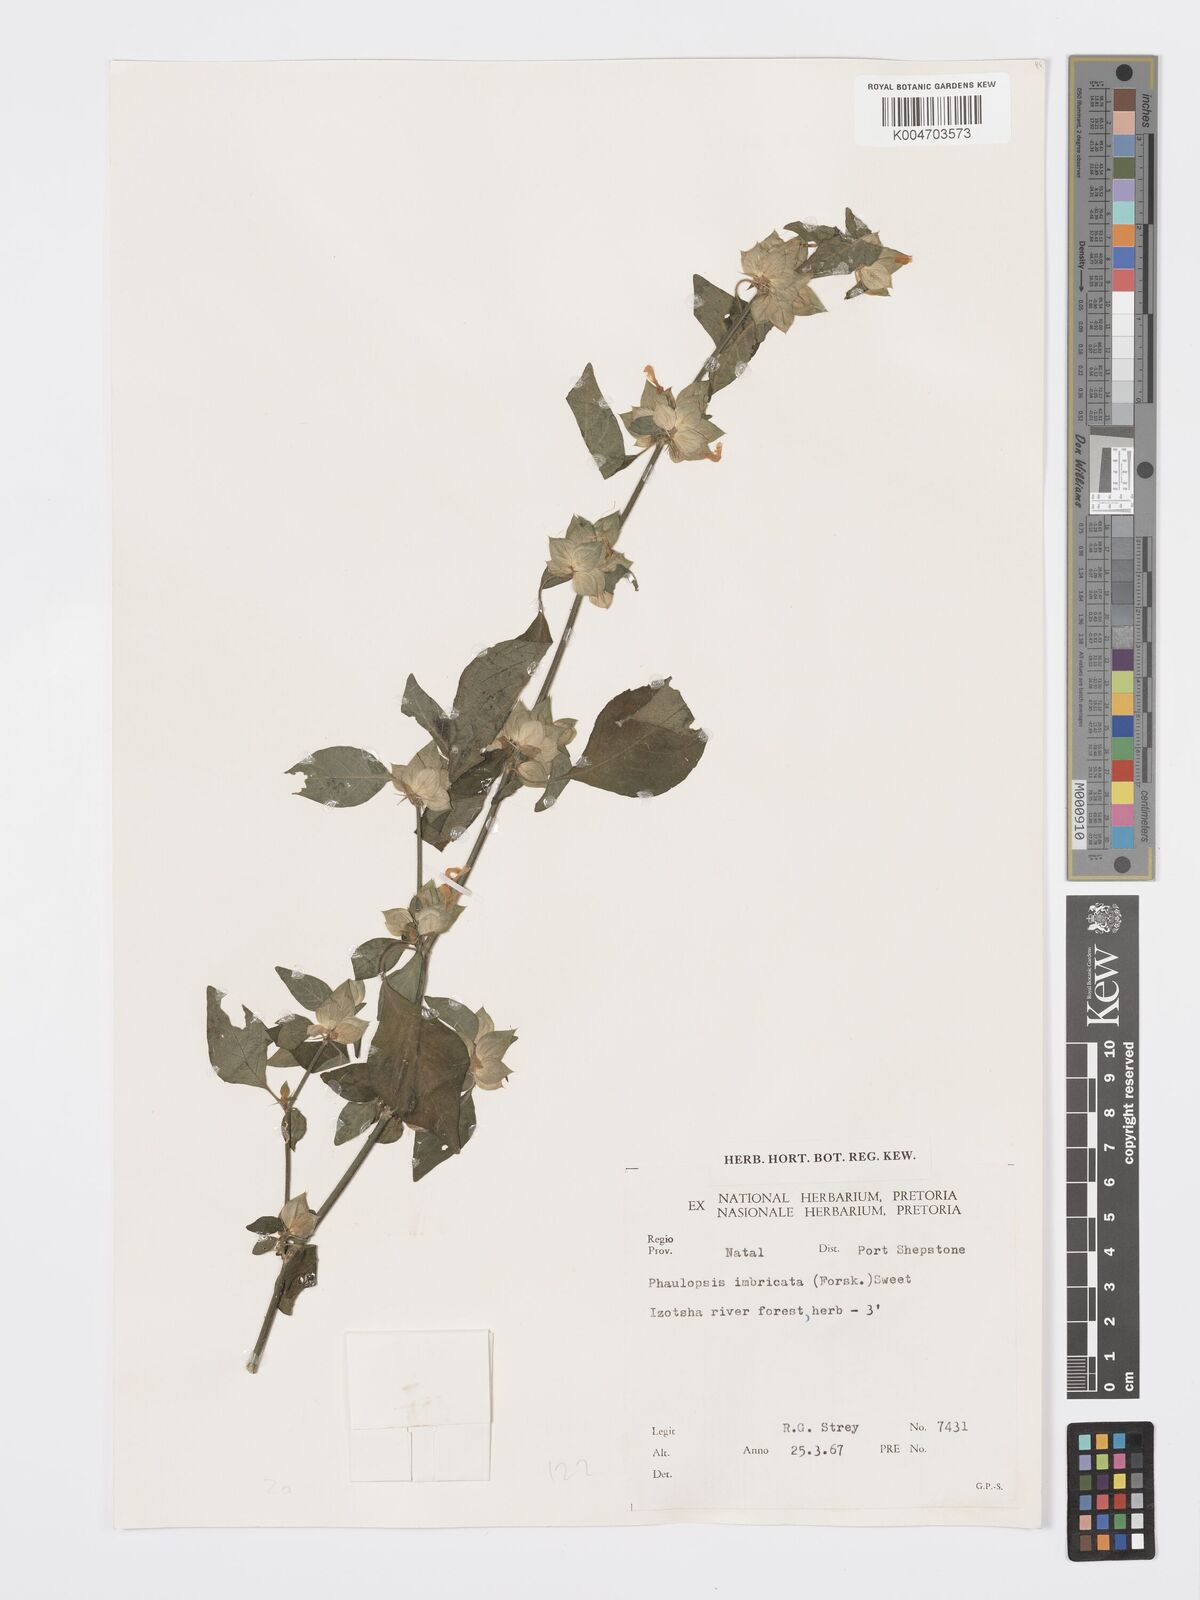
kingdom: Plantae
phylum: Tracheophyta
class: Magnoliopsida
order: Lamiales
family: Acanthaceae
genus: Dicliptera
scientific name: Dicliptera heterostegia
